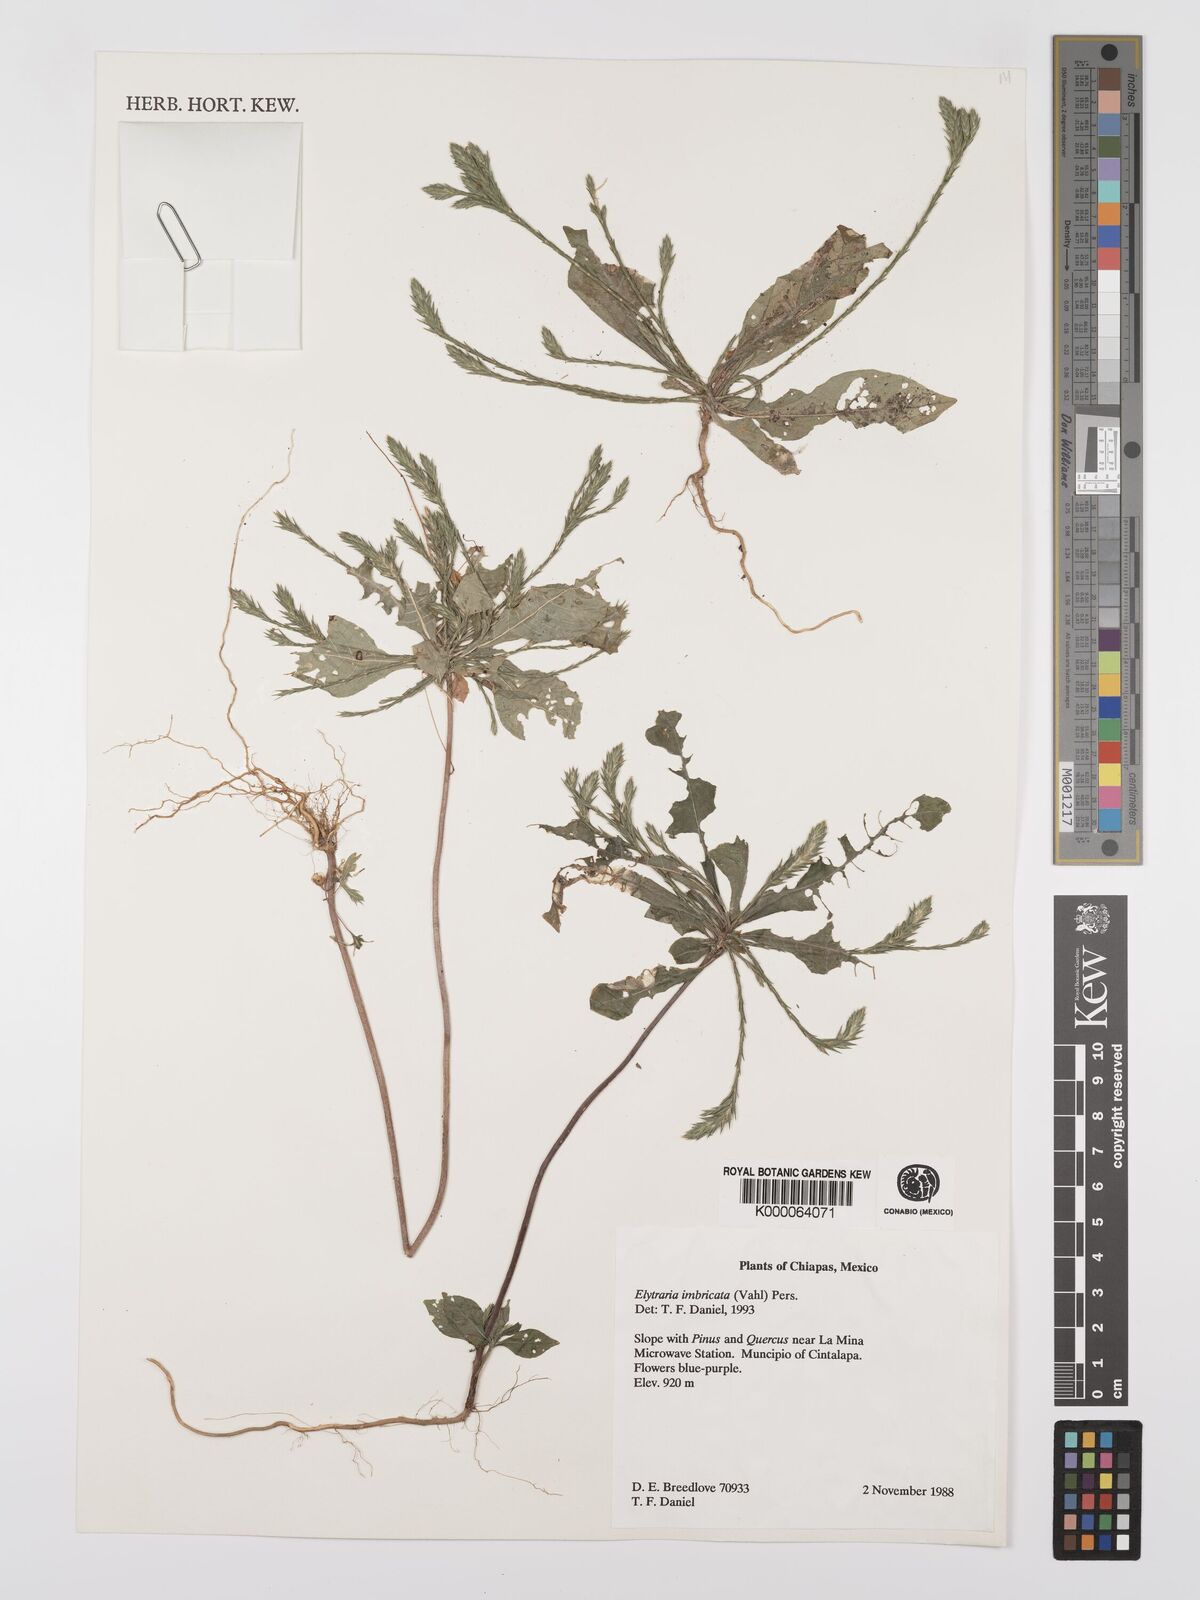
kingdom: Plantae
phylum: Tracheophyta
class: Magnoliopsida
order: Lamiales
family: Acanthaceae
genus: Elytraria
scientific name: Elytraria imbricata
